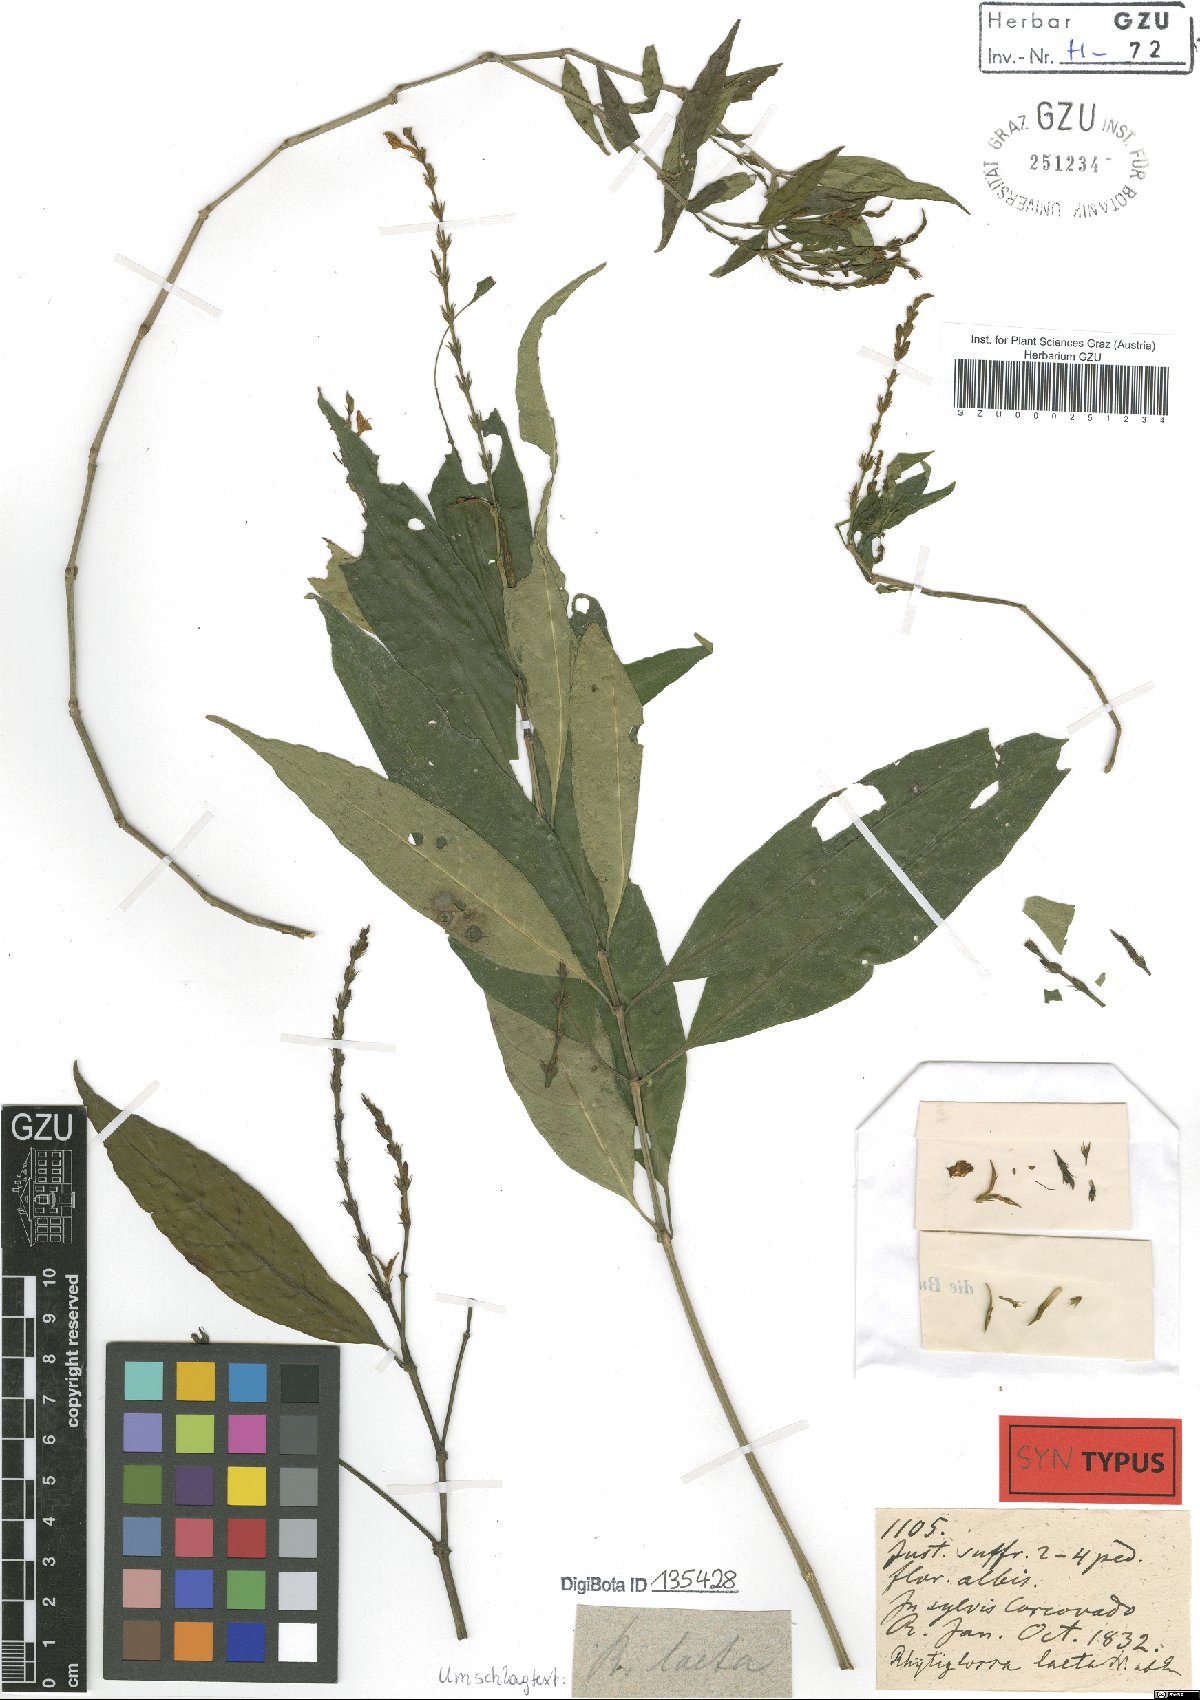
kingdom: Plantae
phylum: Tracheophyta
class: Magnoliopsida
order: Lamiales
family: Acanthaceae
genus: Dianthera
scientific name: Dianthera laeta
